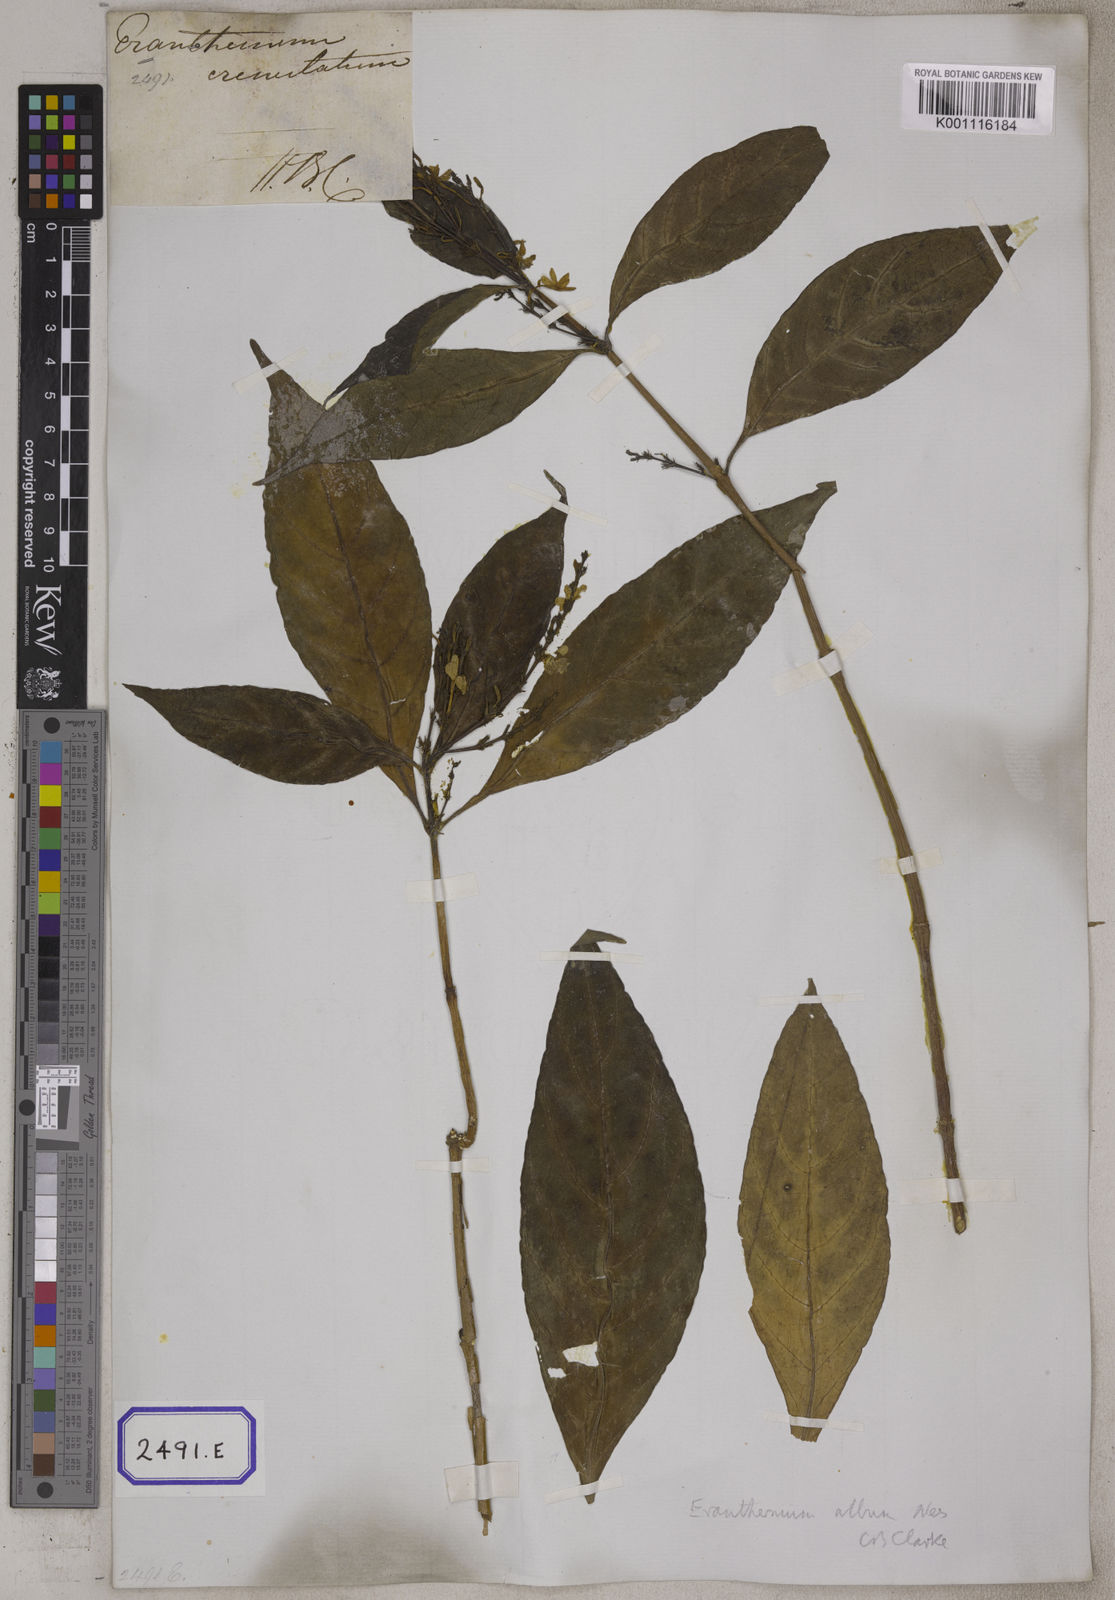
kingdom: Plantae
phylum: Tracheophyta
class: Magnoliopsida
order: Lamiales
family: Acanthaceae
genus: Eranthemum
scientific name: Eranthemum
